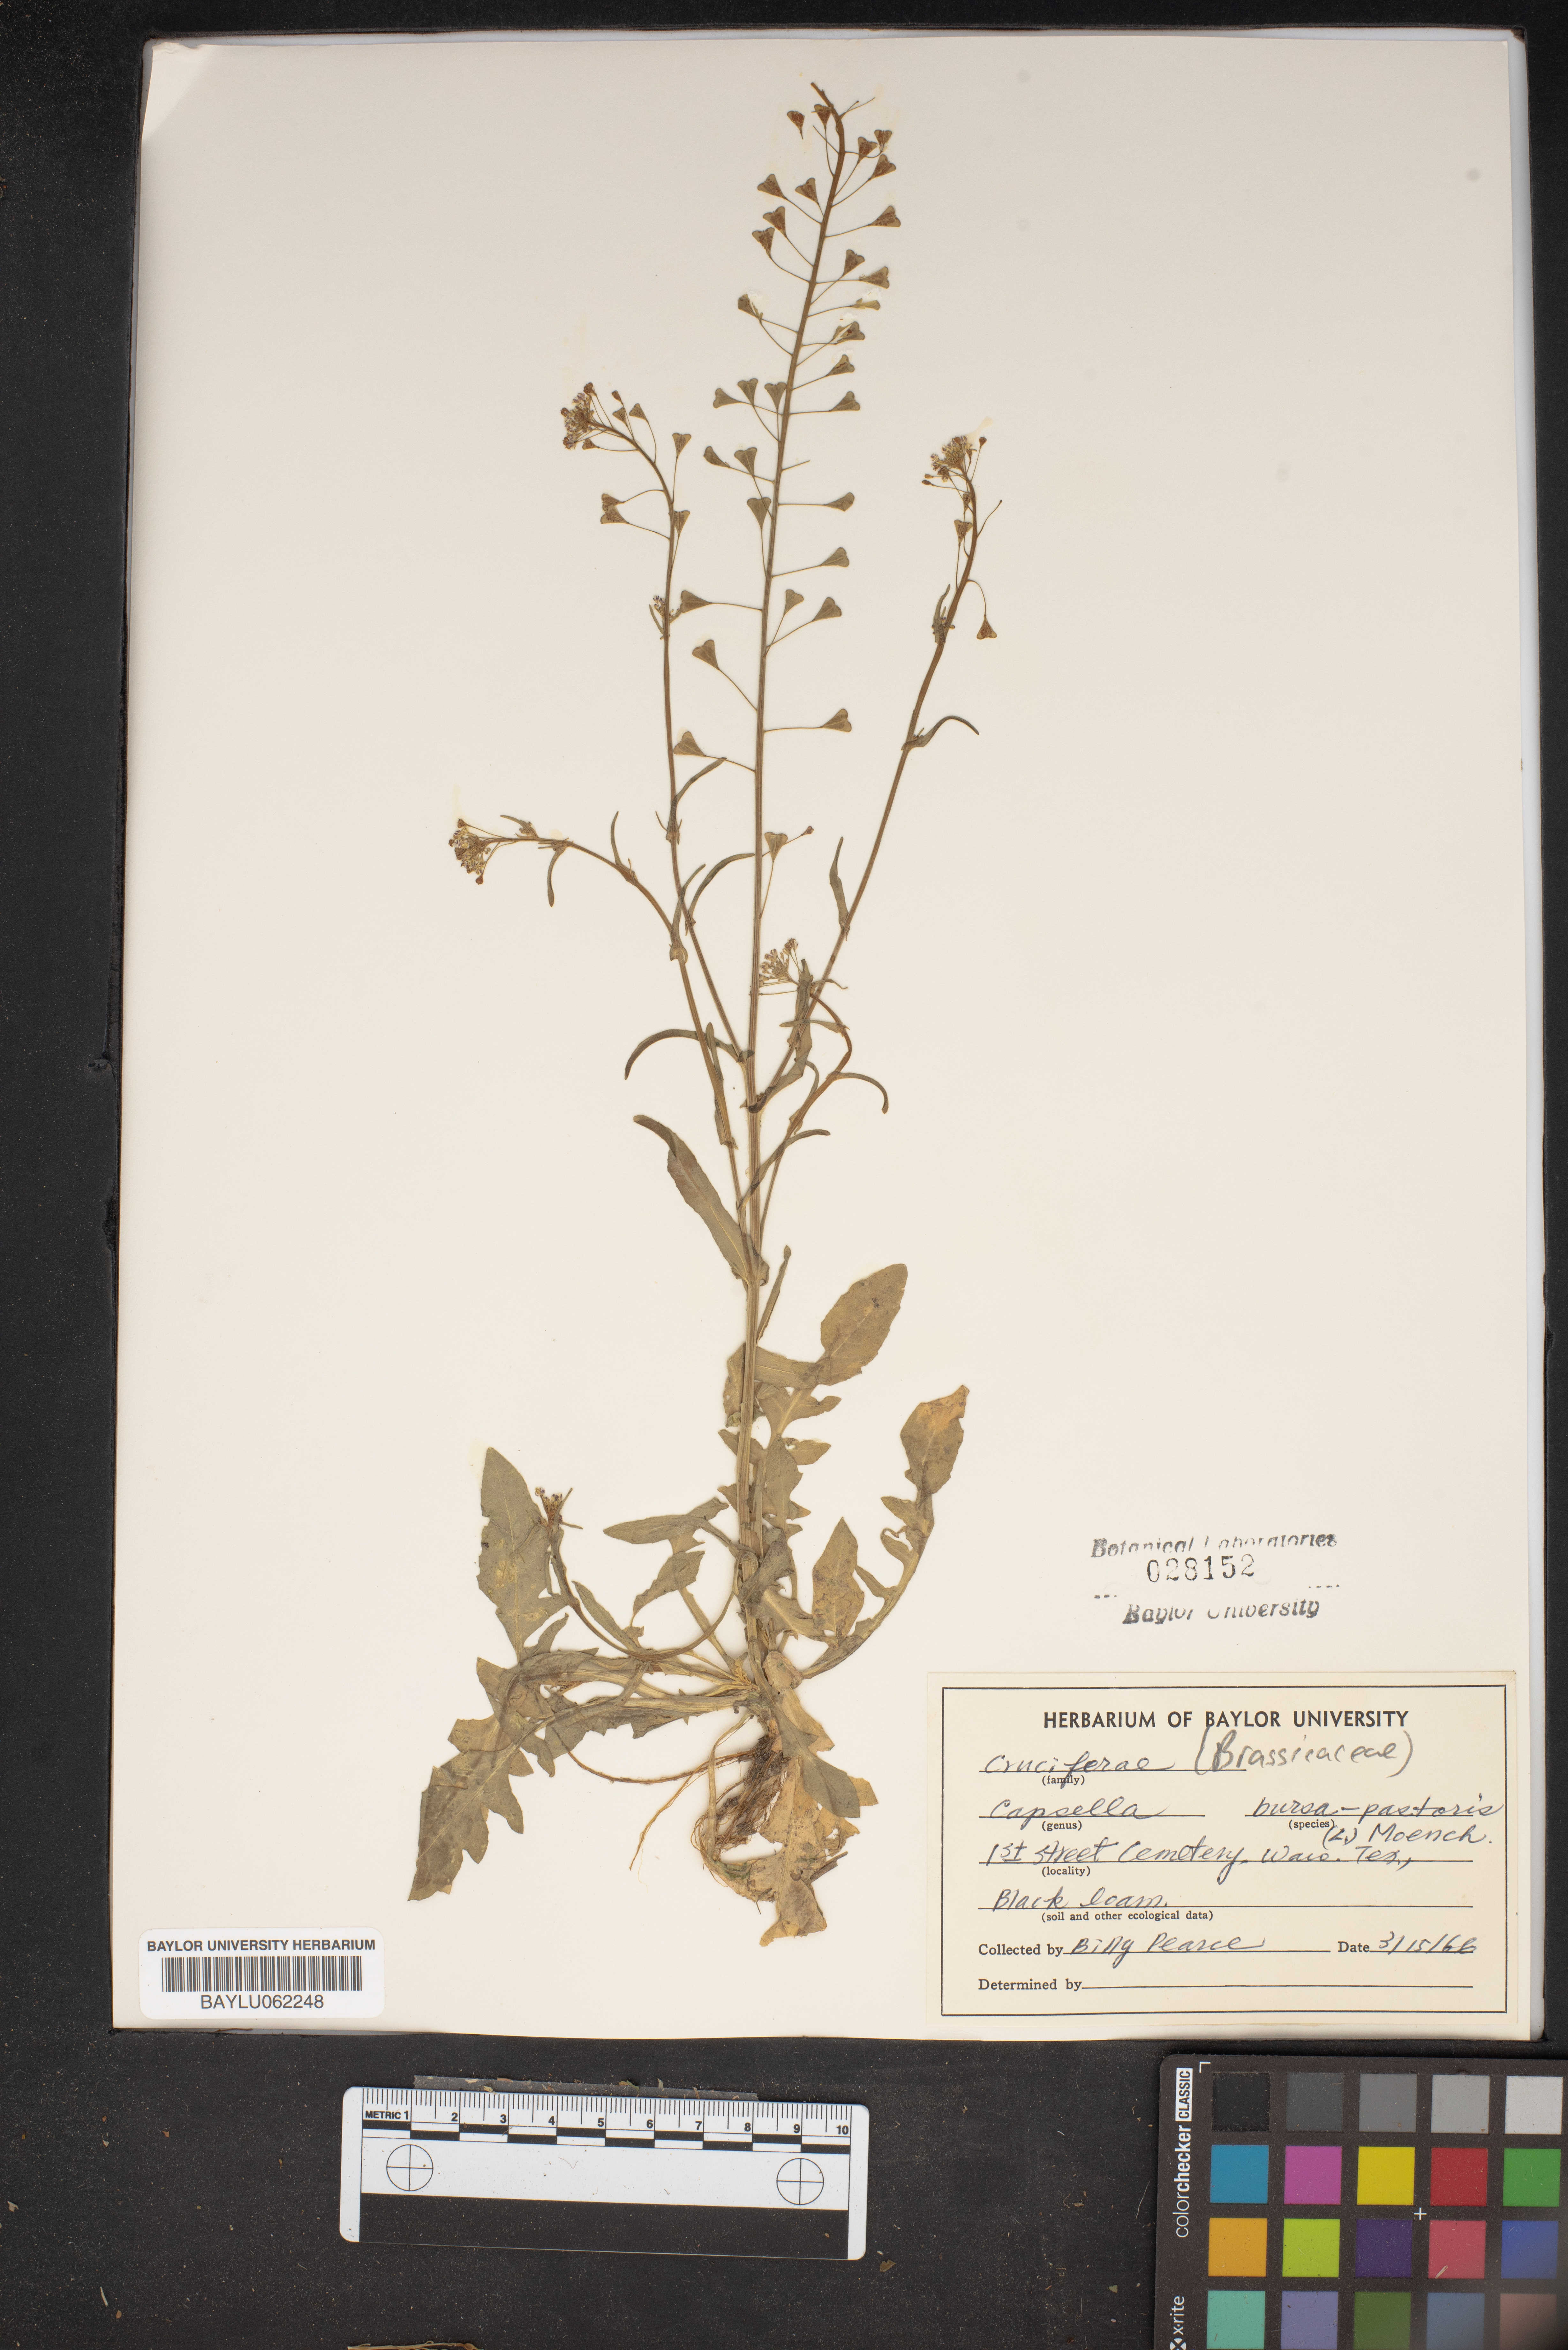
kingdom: Plantae
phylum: Tracheophyta
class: Magnoliopsida
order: Brassicales
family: Brassicaceae
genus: Capsella
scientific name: Capsella bursa-pastoris
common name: Shepherd's purse
